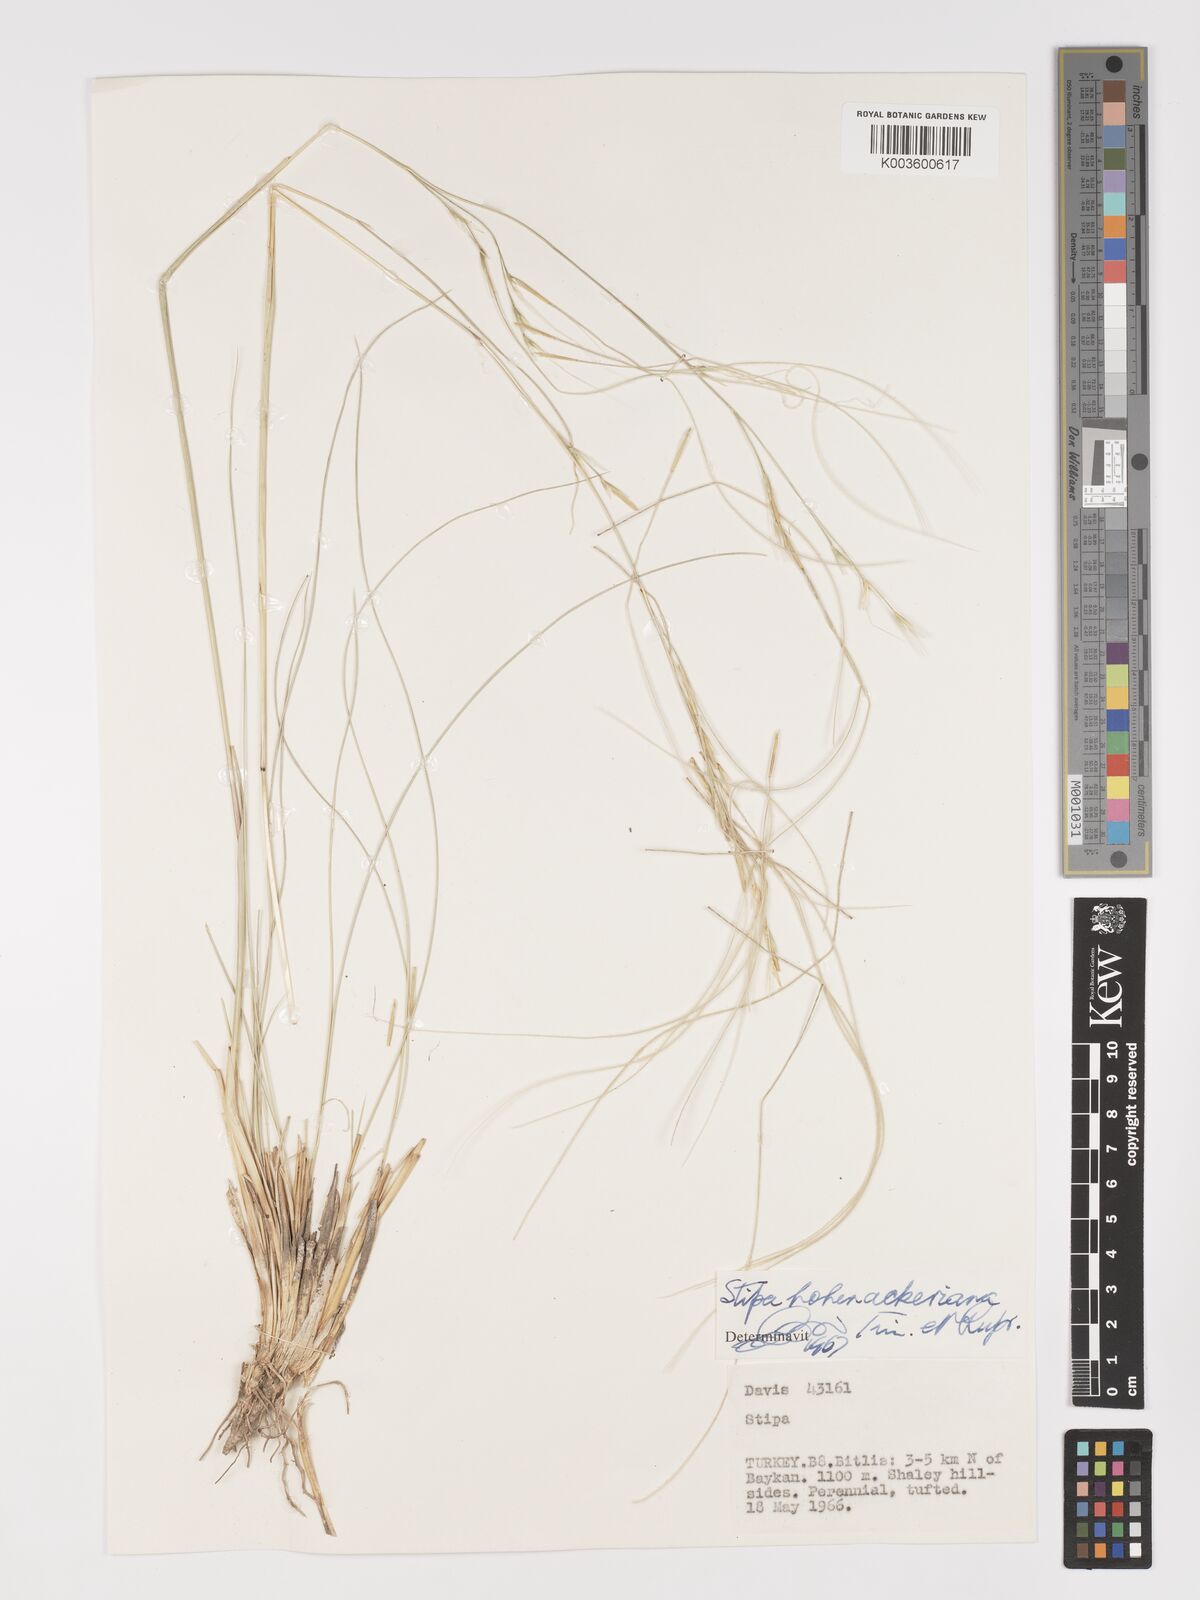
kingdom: Plantae
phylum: Tracheophyta
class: Liliopsida
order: Poales
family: Poaceae
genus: Stipa
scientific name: Stipa hohenackeriana
